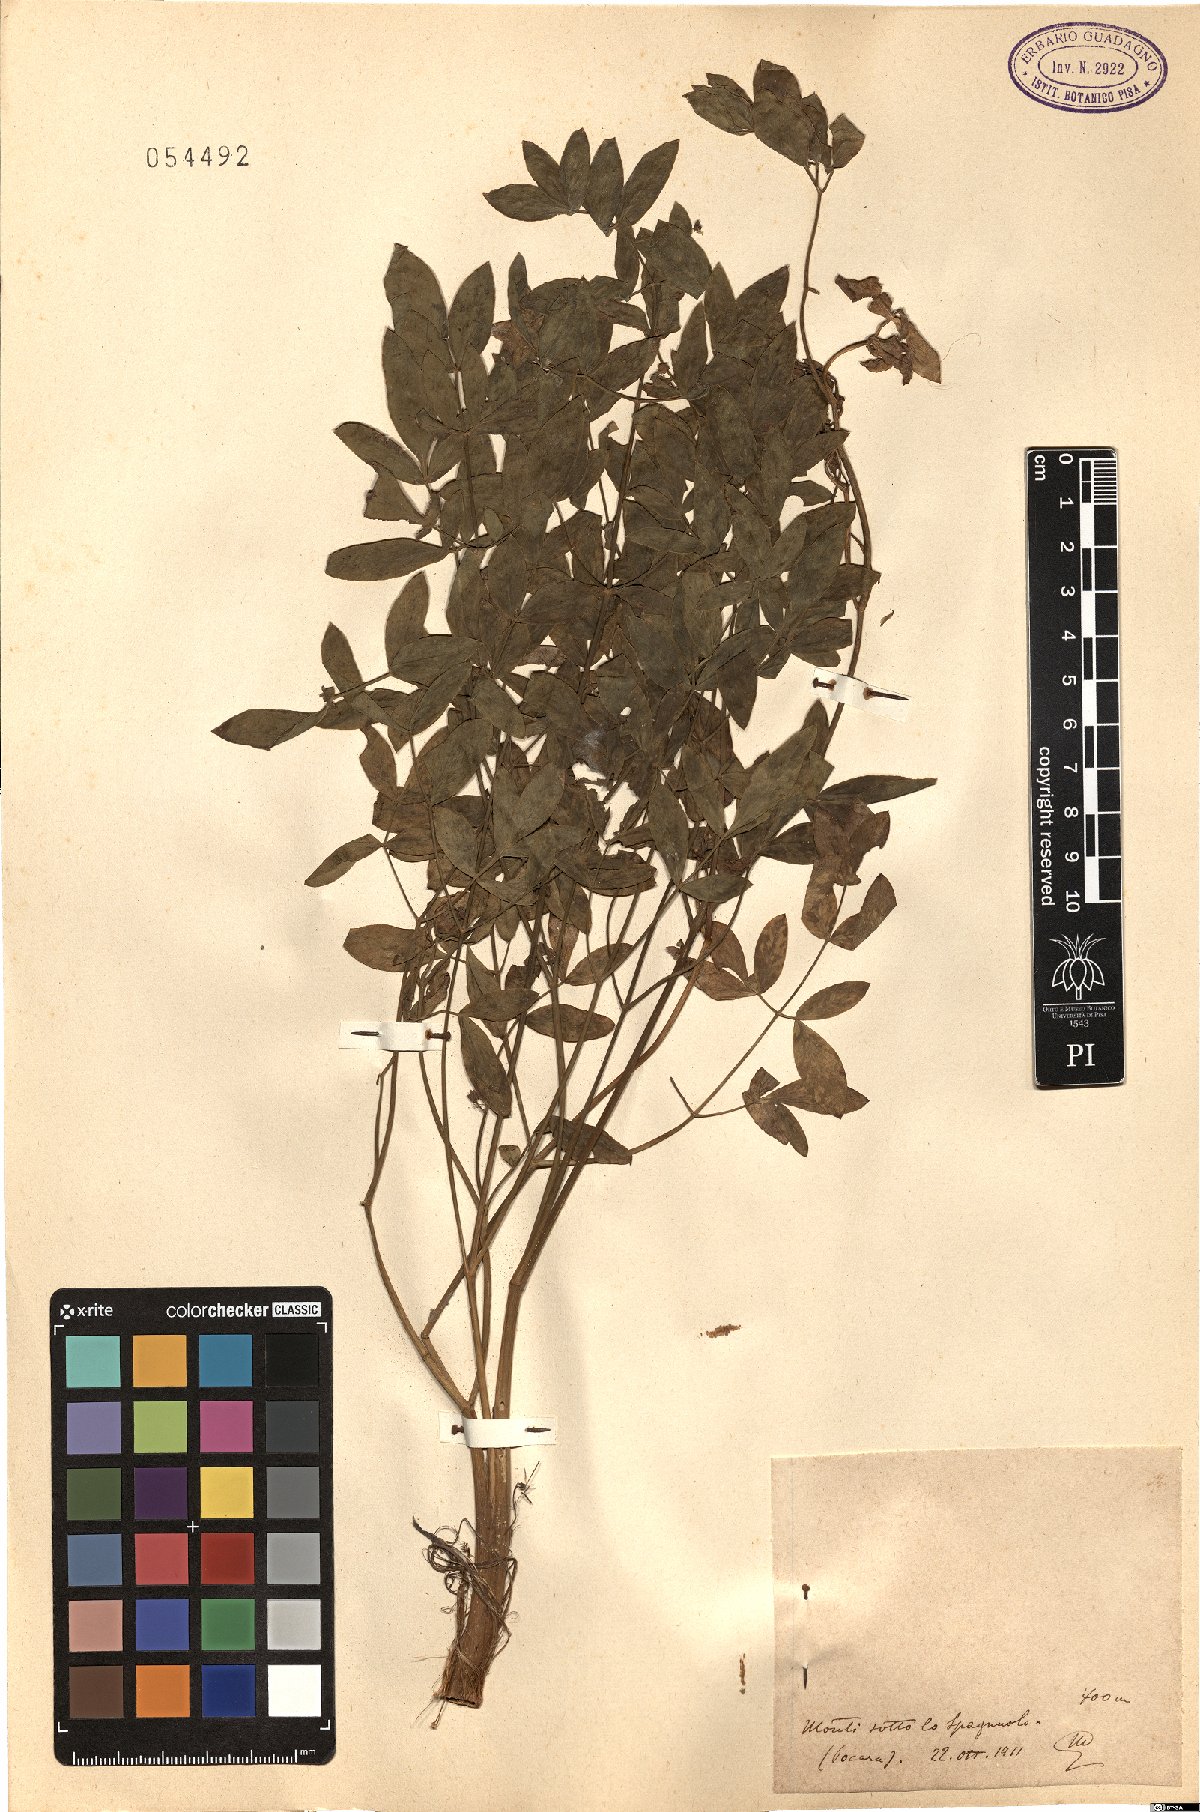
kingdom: Plantae
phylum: Tracheophyta
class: Magnoliopsida
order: Apiales
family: Apiaceae
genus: Laserpitium
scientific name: Laserpitium
